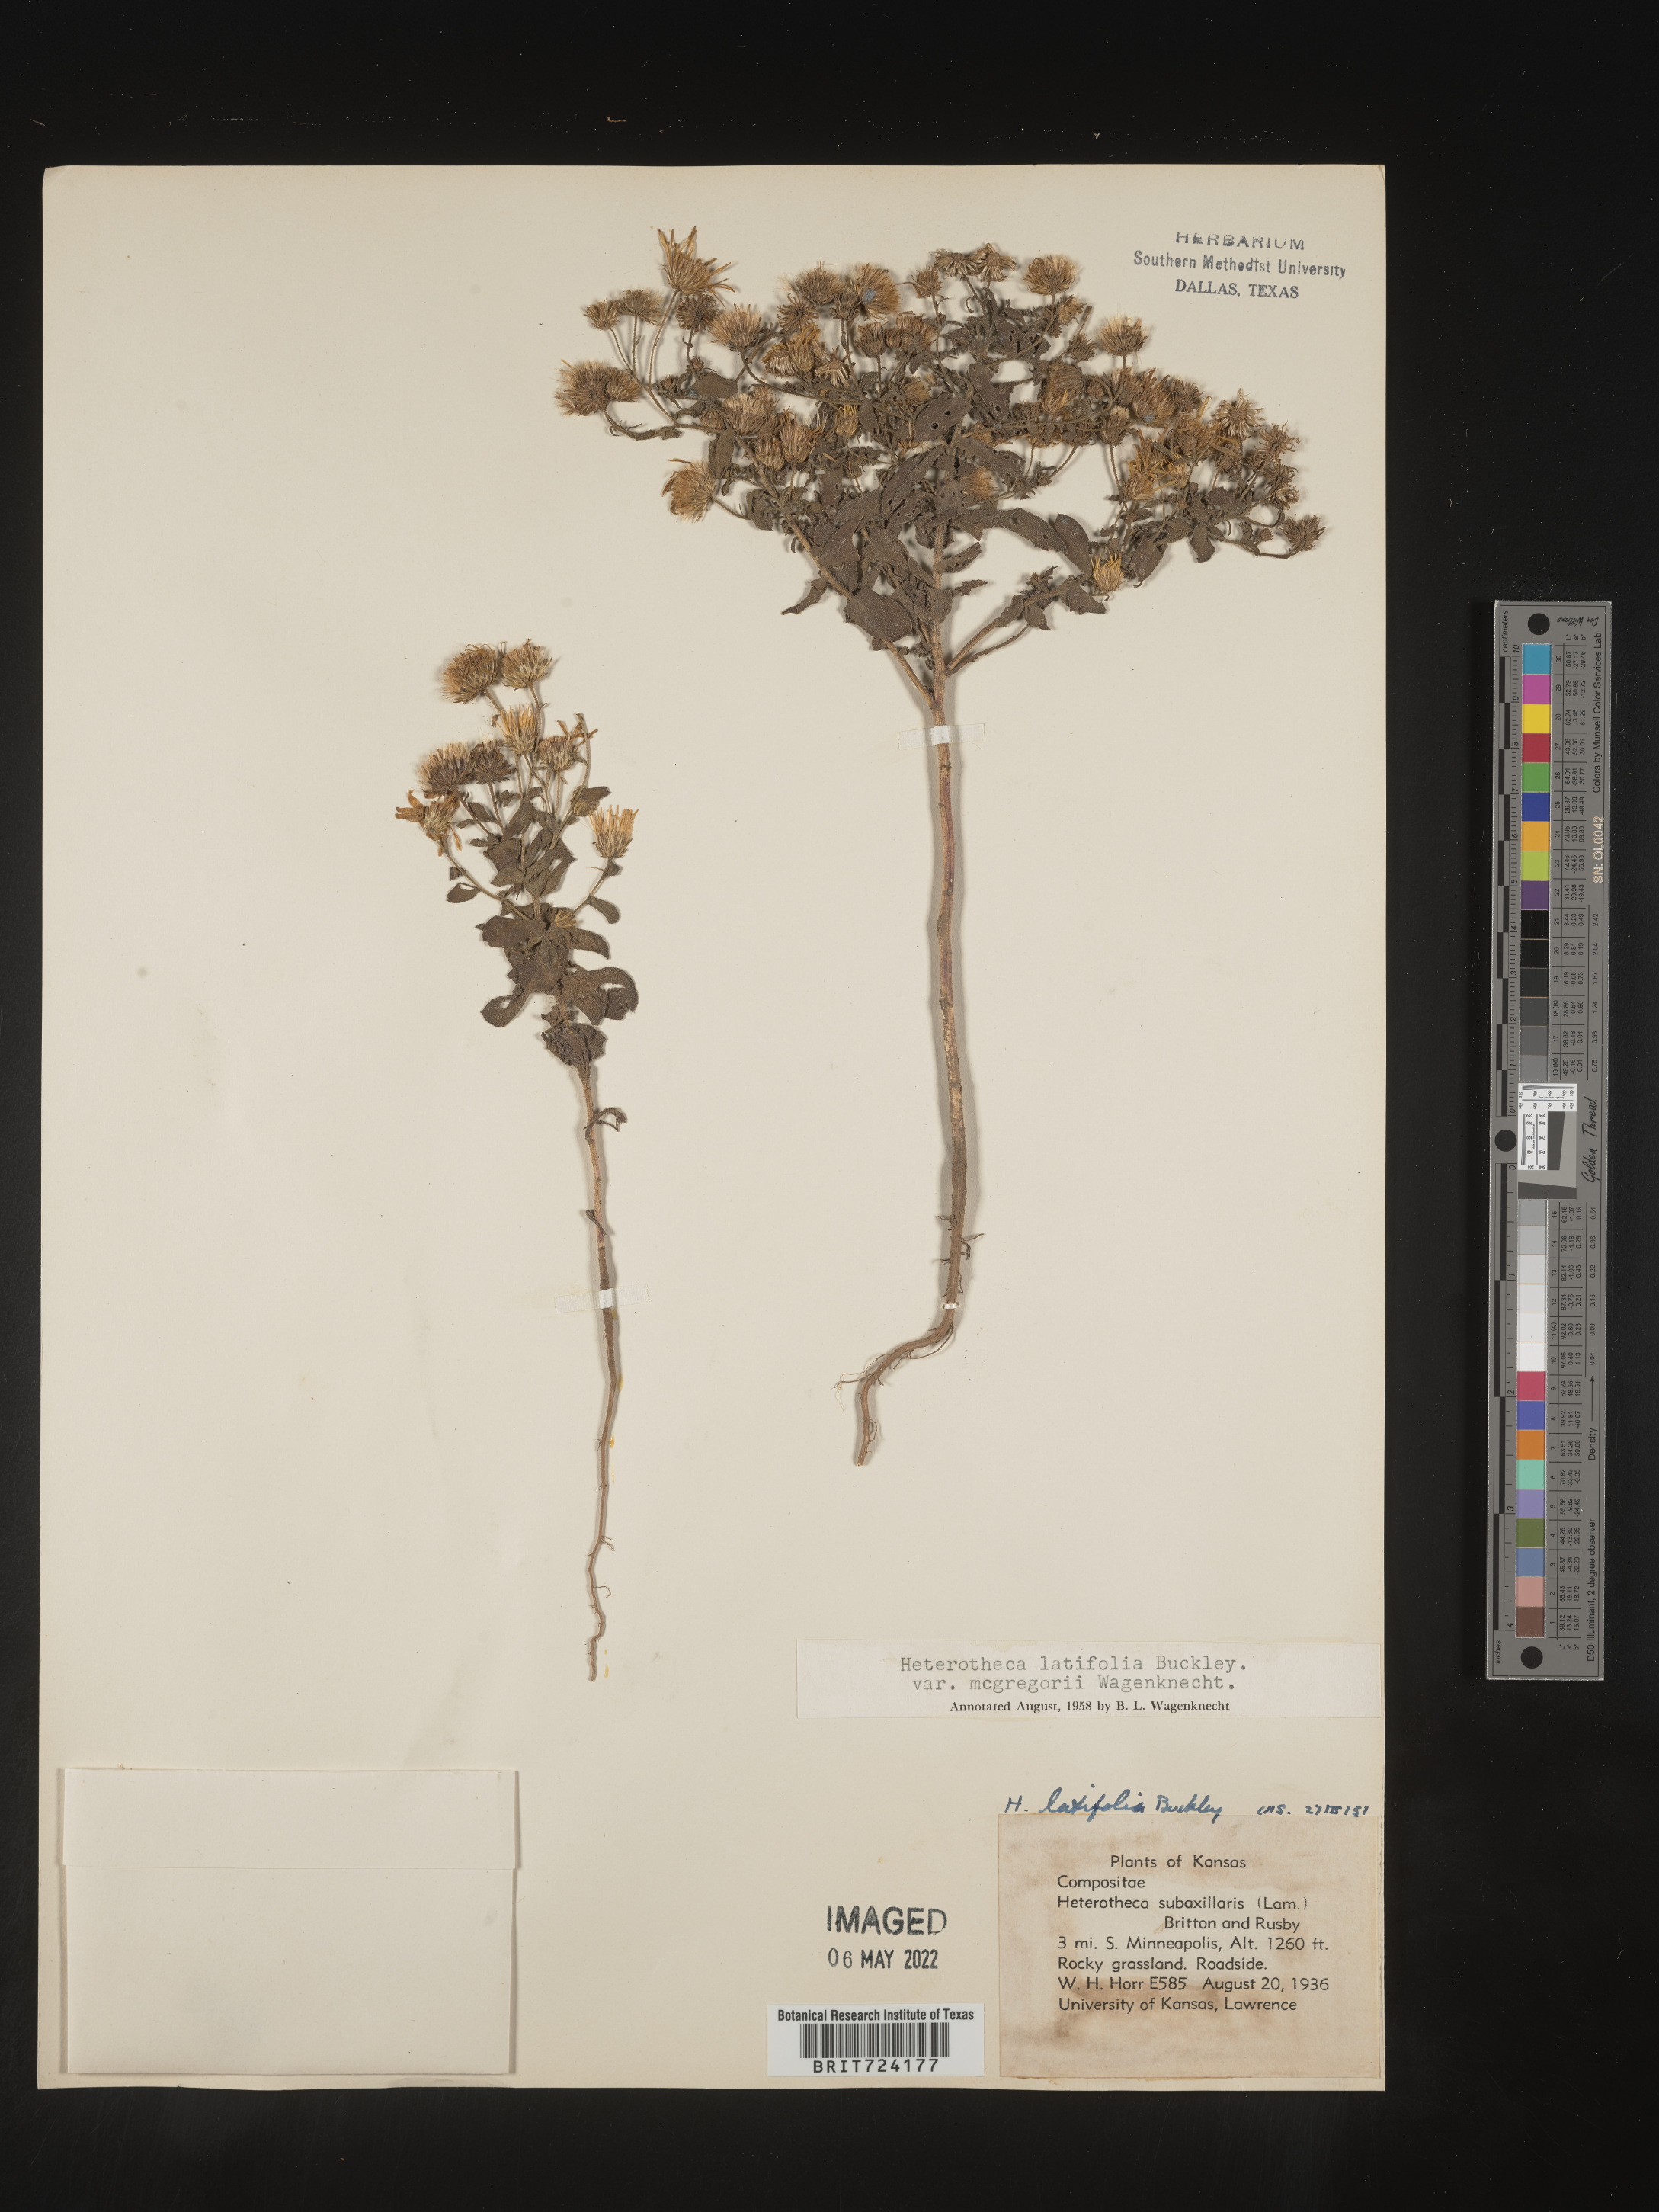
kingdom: Plantae
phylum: Tracheophyta
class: Magnoliopsida
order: Asterales
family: Asteraceae
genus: Heterotheca
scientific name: Heterotheca subaxillaris
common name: Camphorweed
